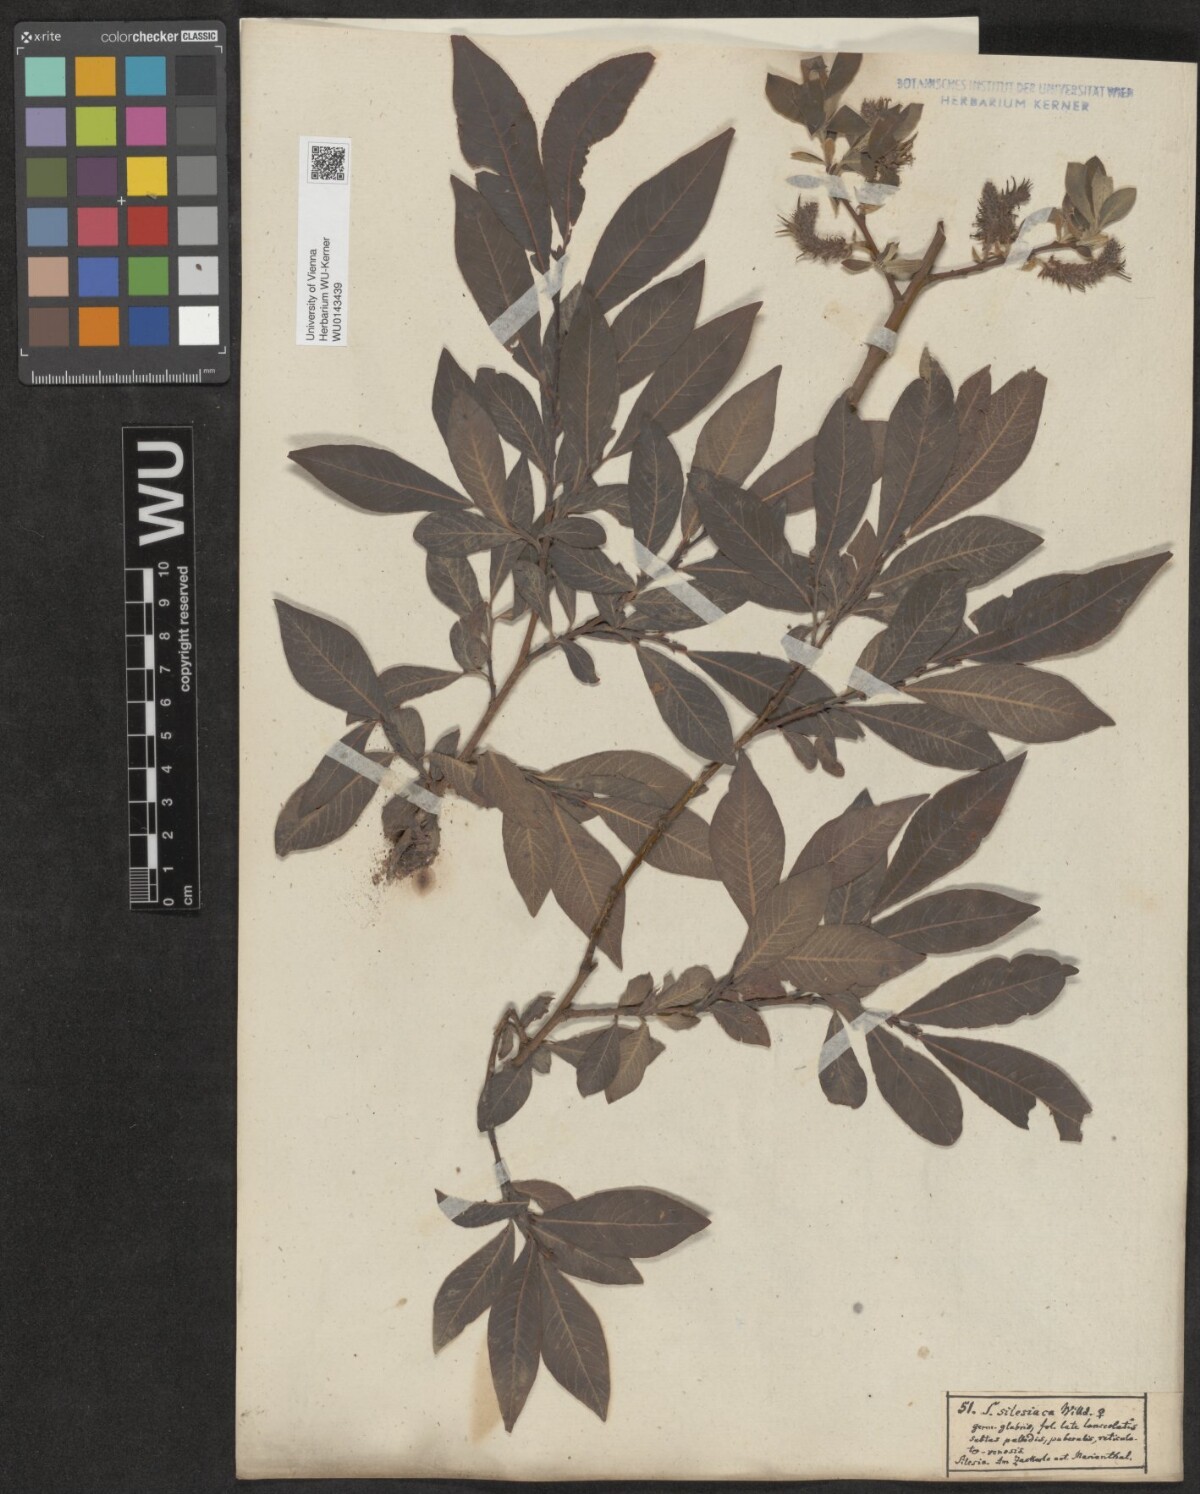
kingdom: Plantae
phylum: Tracheophyta
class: Magnoliopsida
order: Malpighiales
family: Salicaceae
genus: Salix
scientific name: Salix silesiaca
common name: Silesian willow
